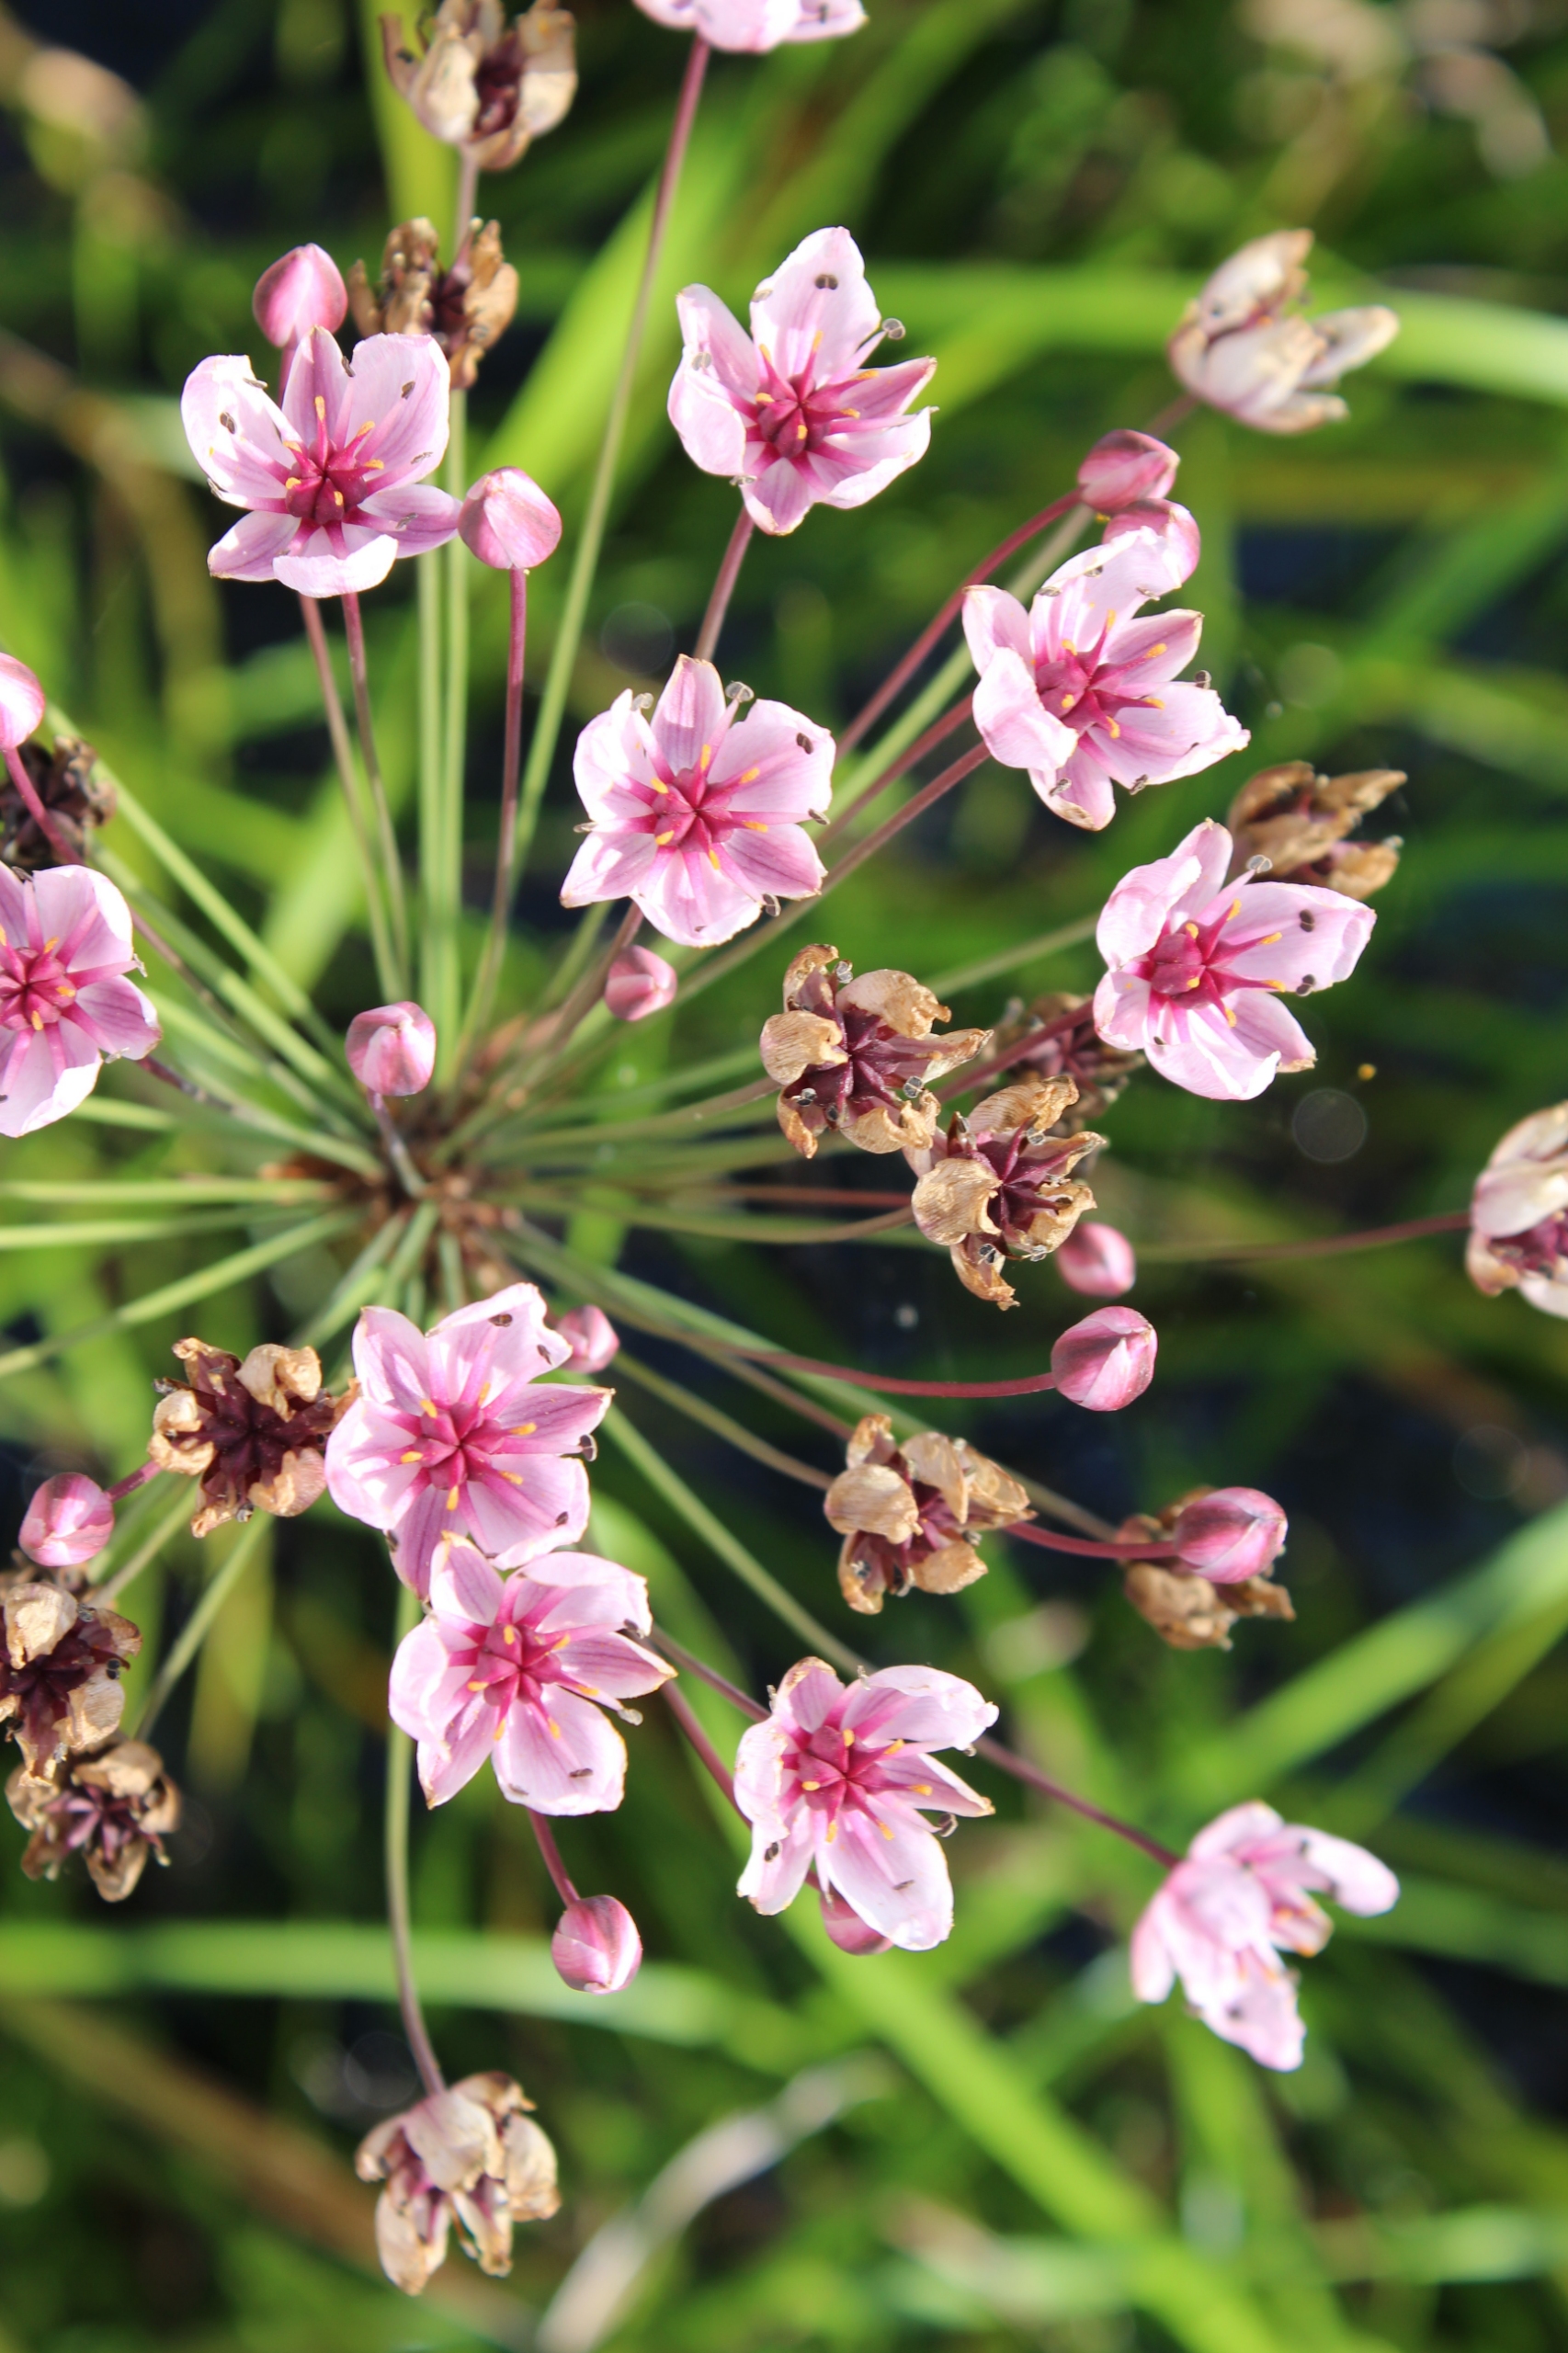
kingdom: Plantae
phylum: Tracheophyta
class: Liliopsida
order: Alismatales
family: Butomaceae
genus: Butomus
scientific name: Butomus umbellatus
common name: Brudelys
